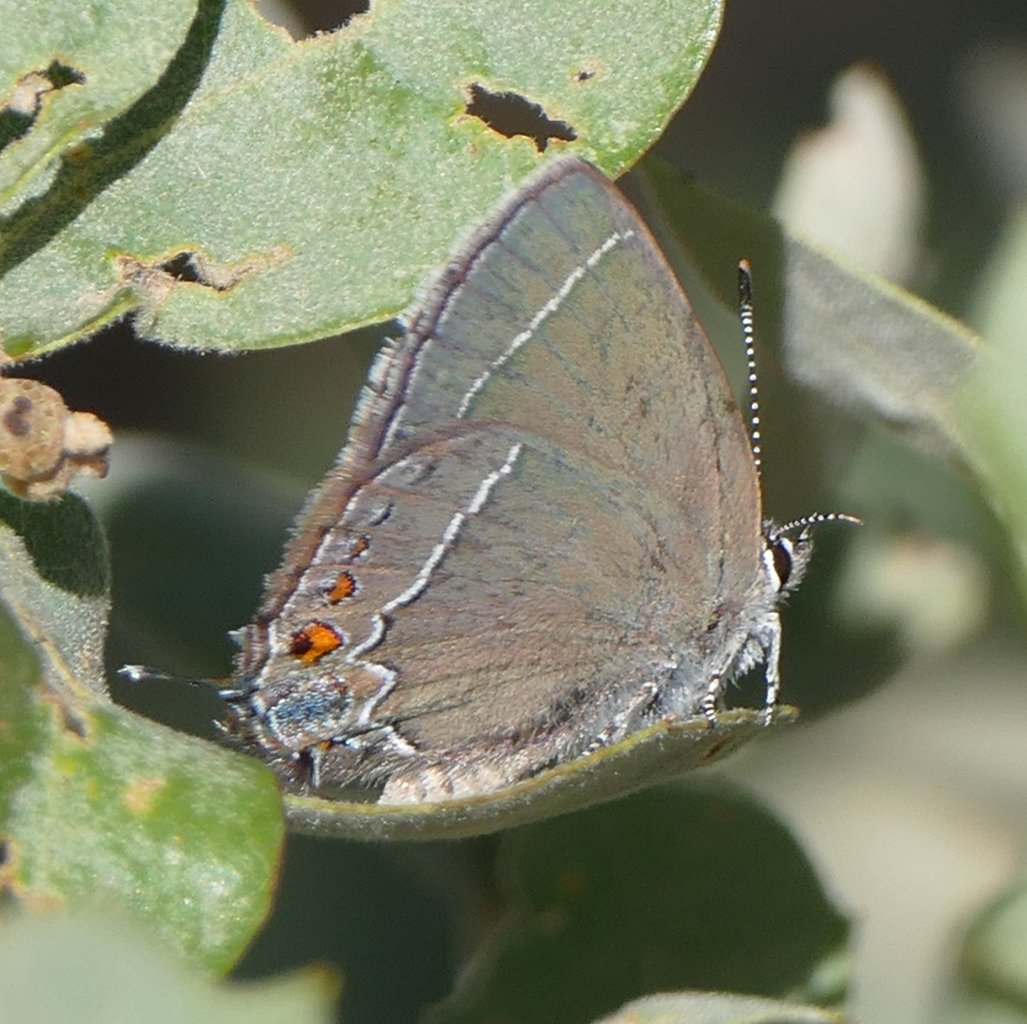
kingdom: Animalia
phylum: Arthropoda
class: Insecta
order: Lepidoptera
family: Lycaenidae
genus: Fixsenia
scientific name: Fixsenia polingi
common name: Poling's Hairstreak
